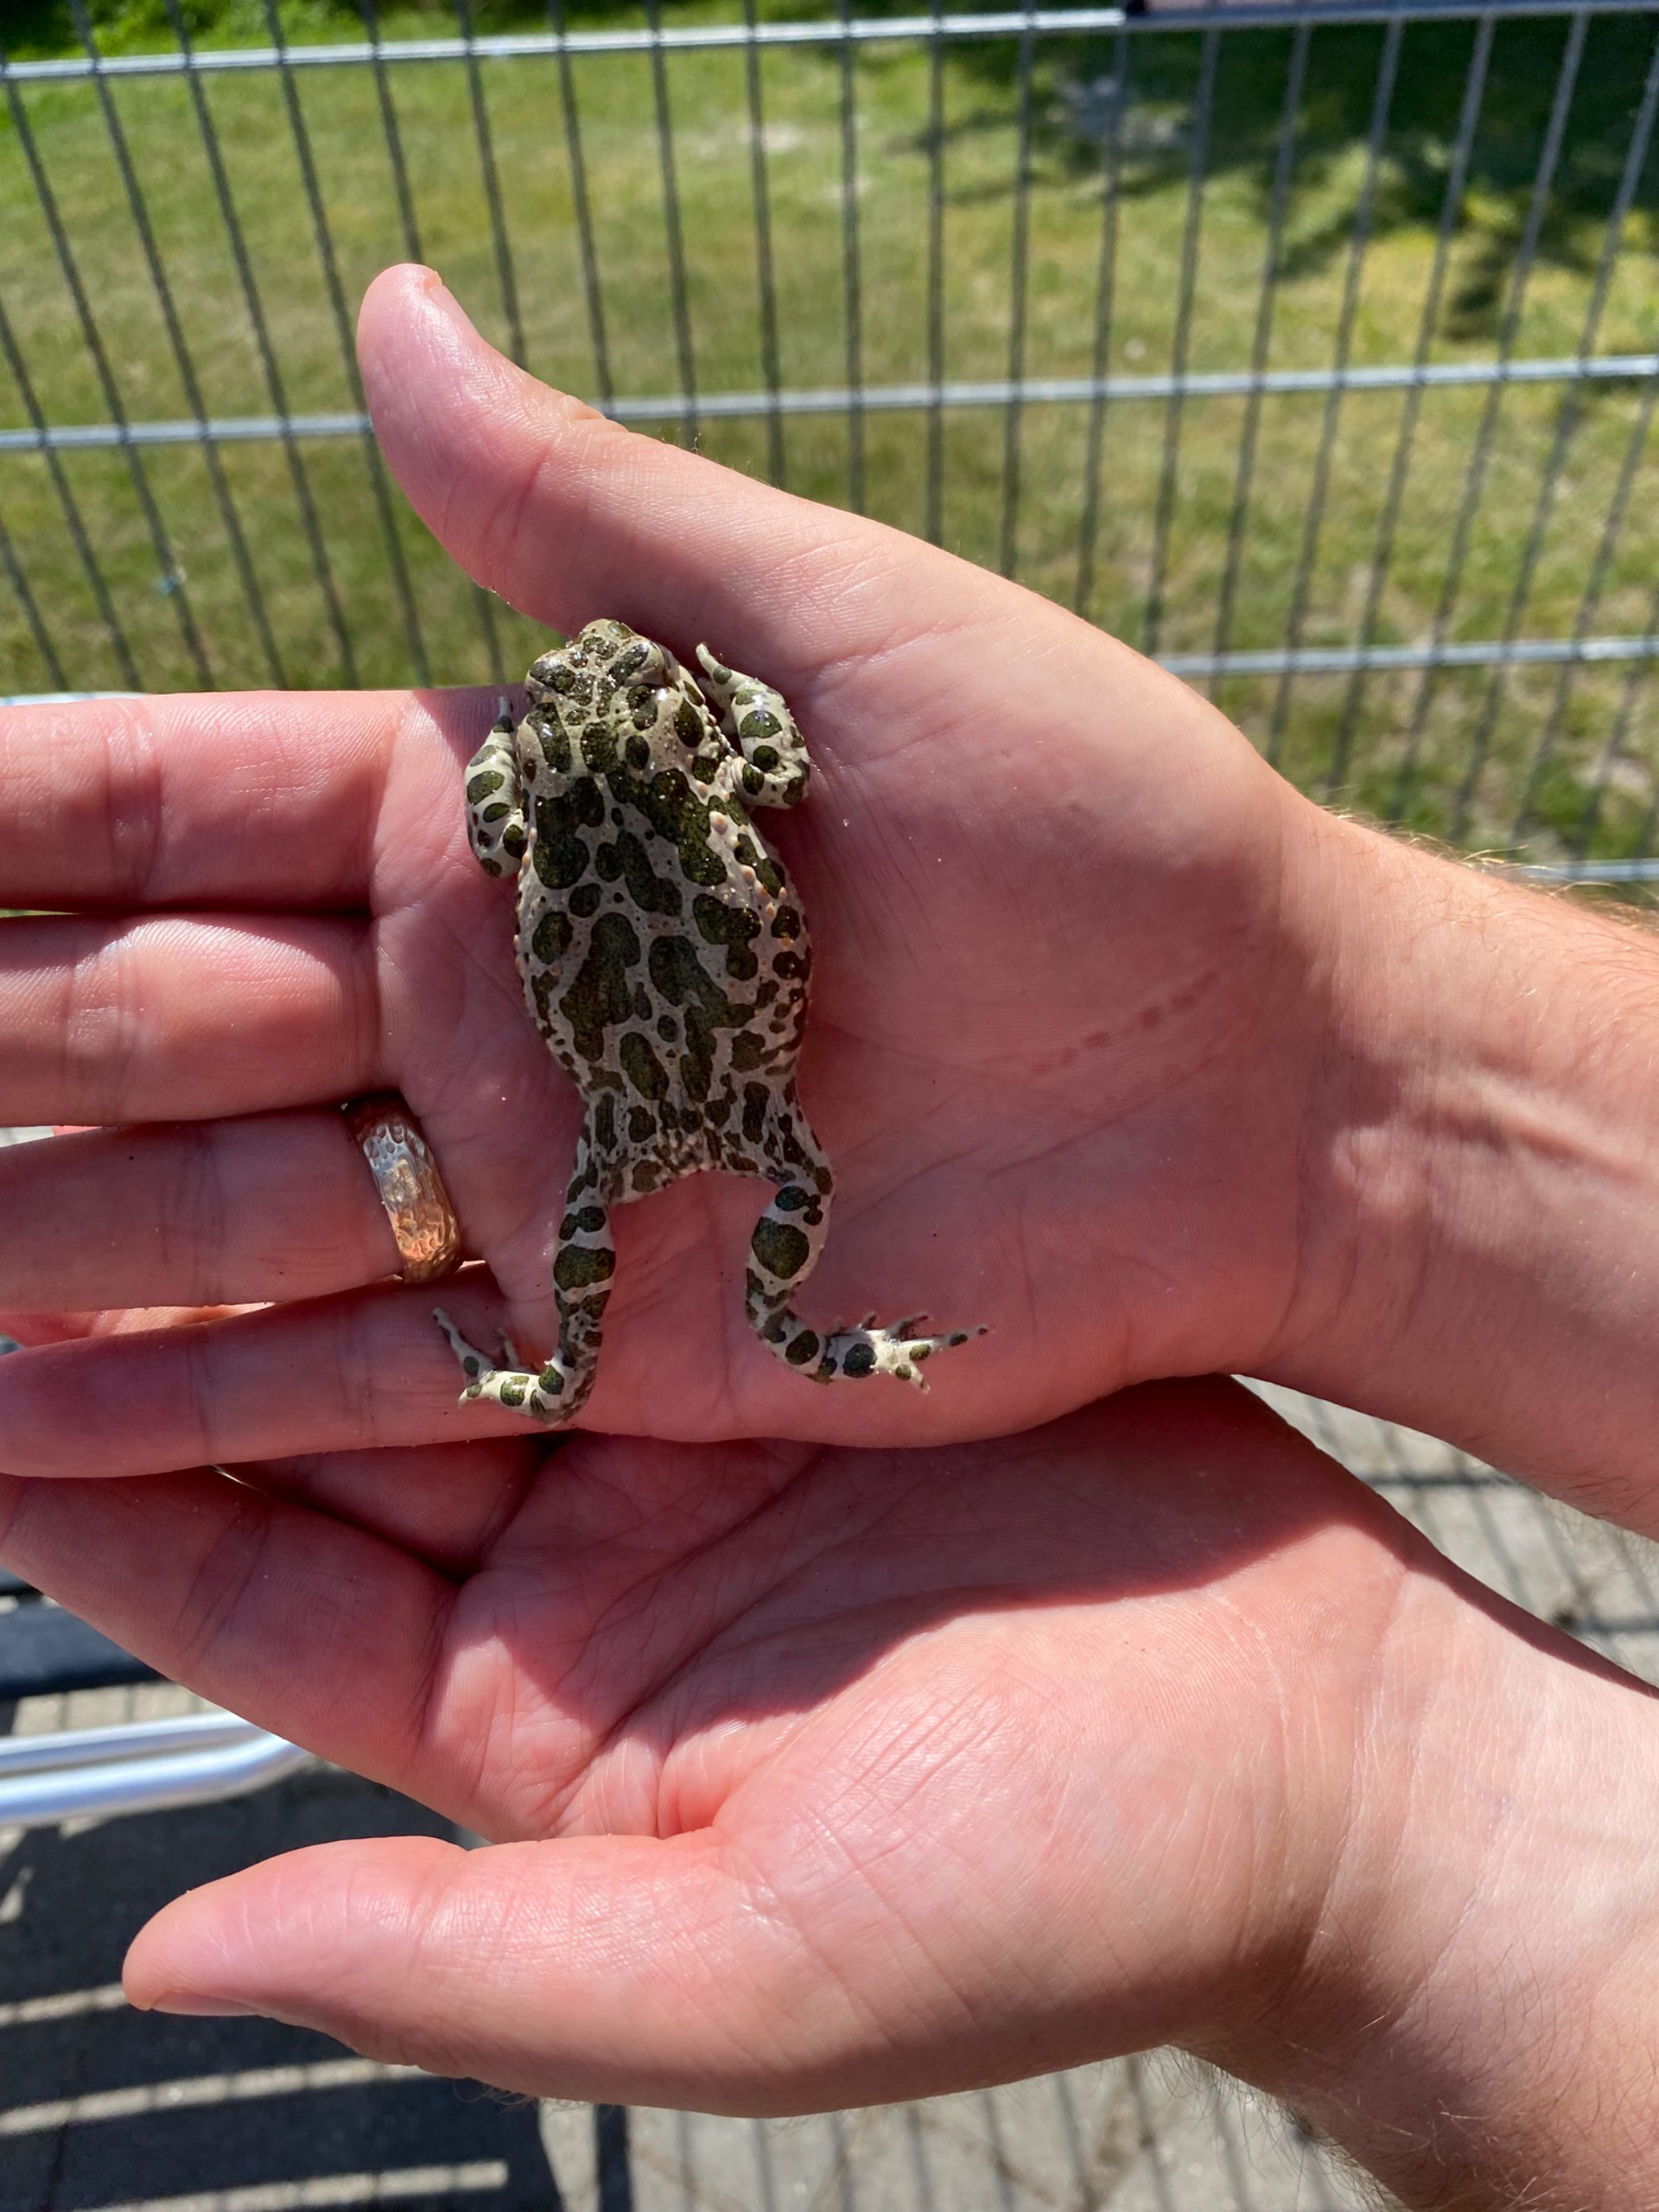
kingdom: Animalia
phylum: Chordata
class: Amphibia
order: Anura
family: Bufonidae
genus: Bufotes
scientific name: Bufotes viridis
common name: Grønbroget tudse
